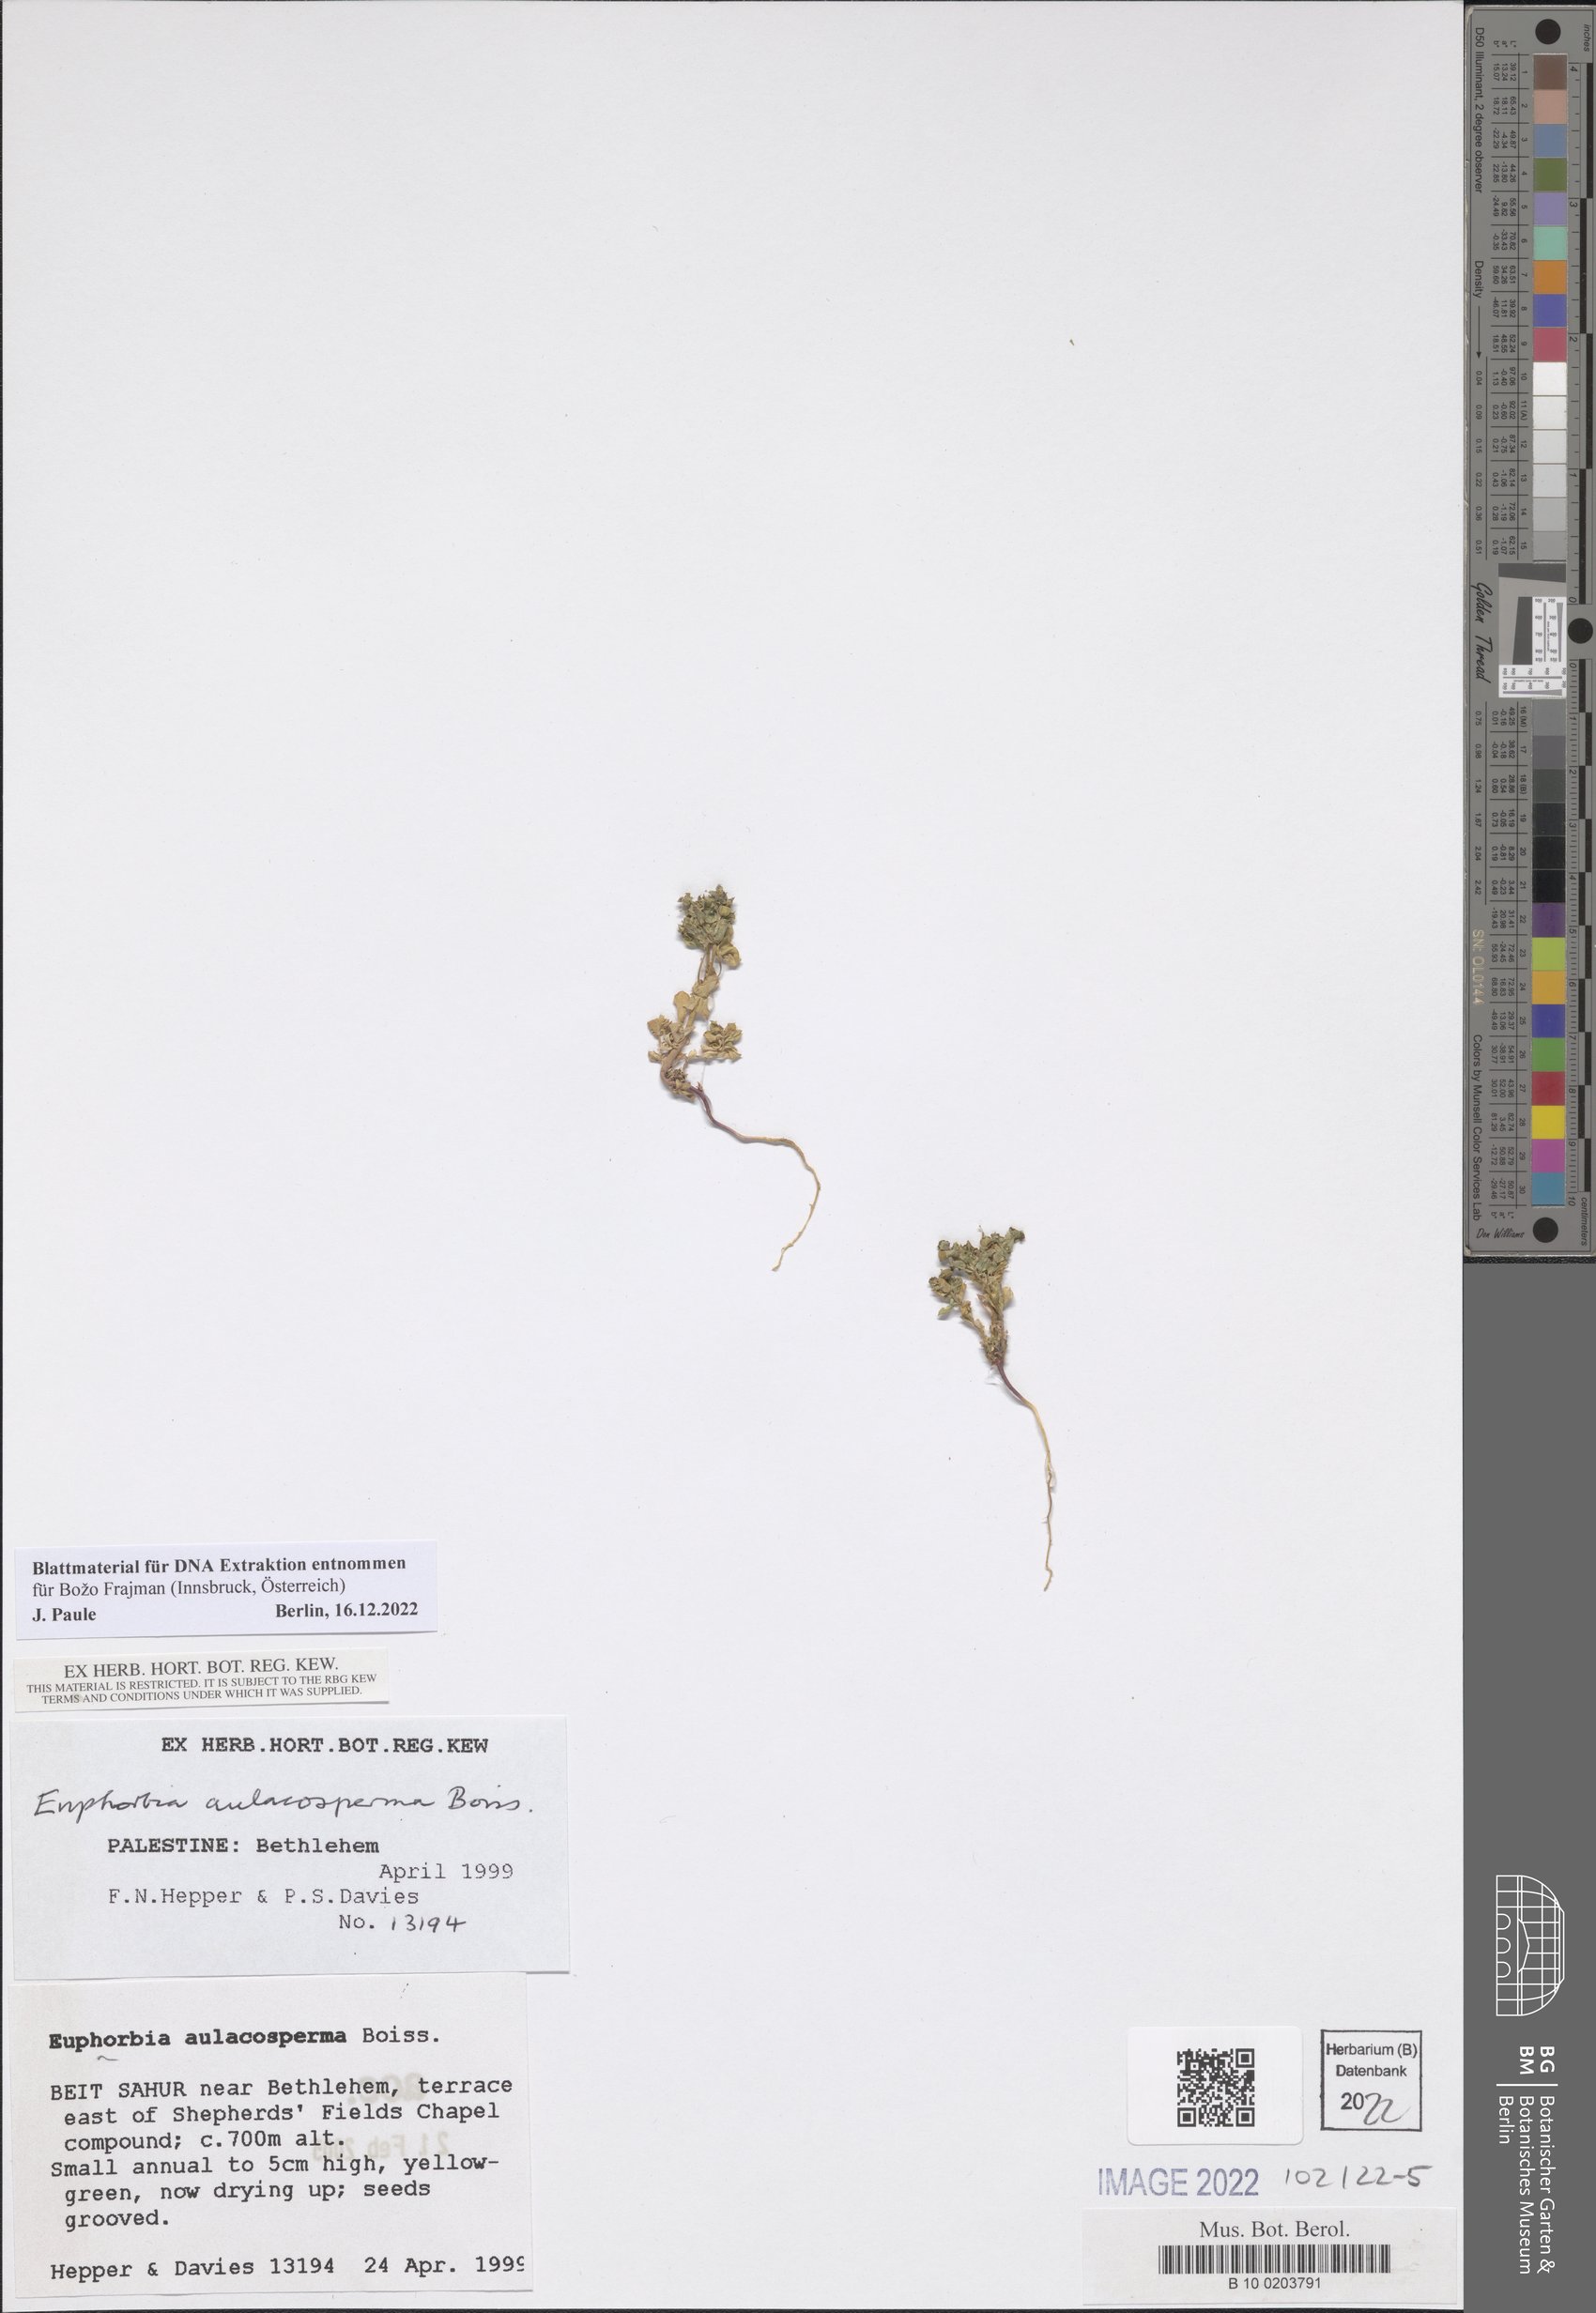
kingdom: Plantae
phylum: Tracheophyta
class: Magnoliopsida
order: Malpighiales
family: Euphorbiaceae
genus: Euphorbia
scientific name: Euphorbia aulacosperma
